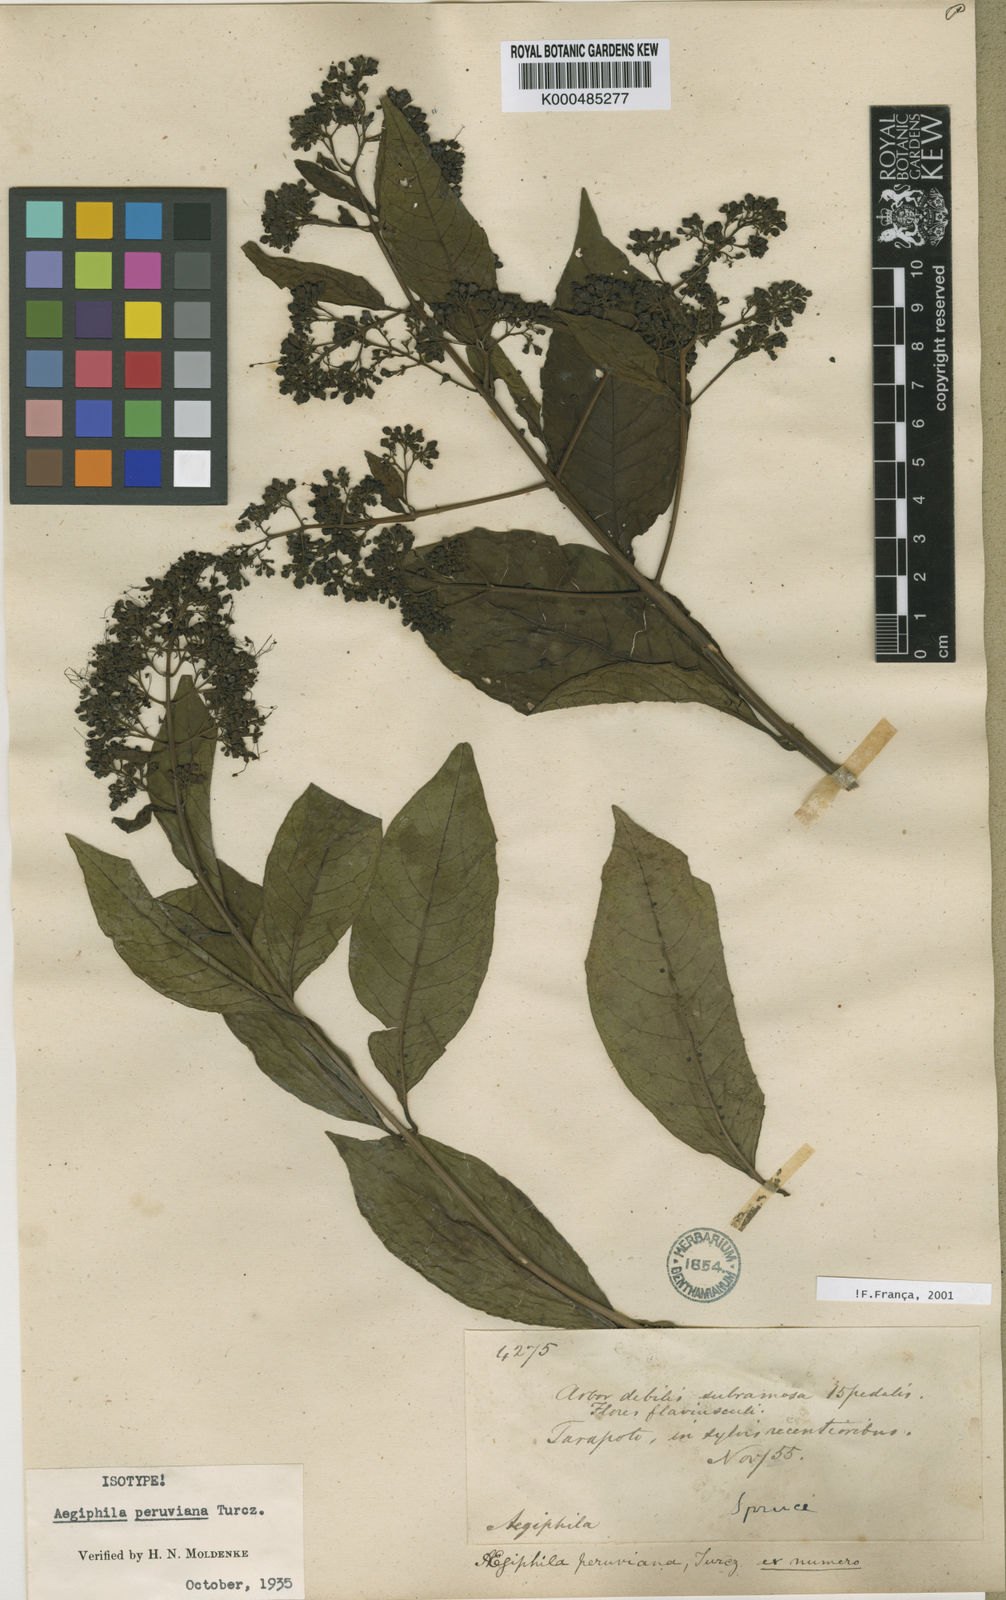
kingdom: Plantae
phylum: Tracheophyta
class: Magnoliopsida
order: Lamiales
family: Lamiaceae
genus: Aegiphila
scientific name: Aegiphila peruviana
